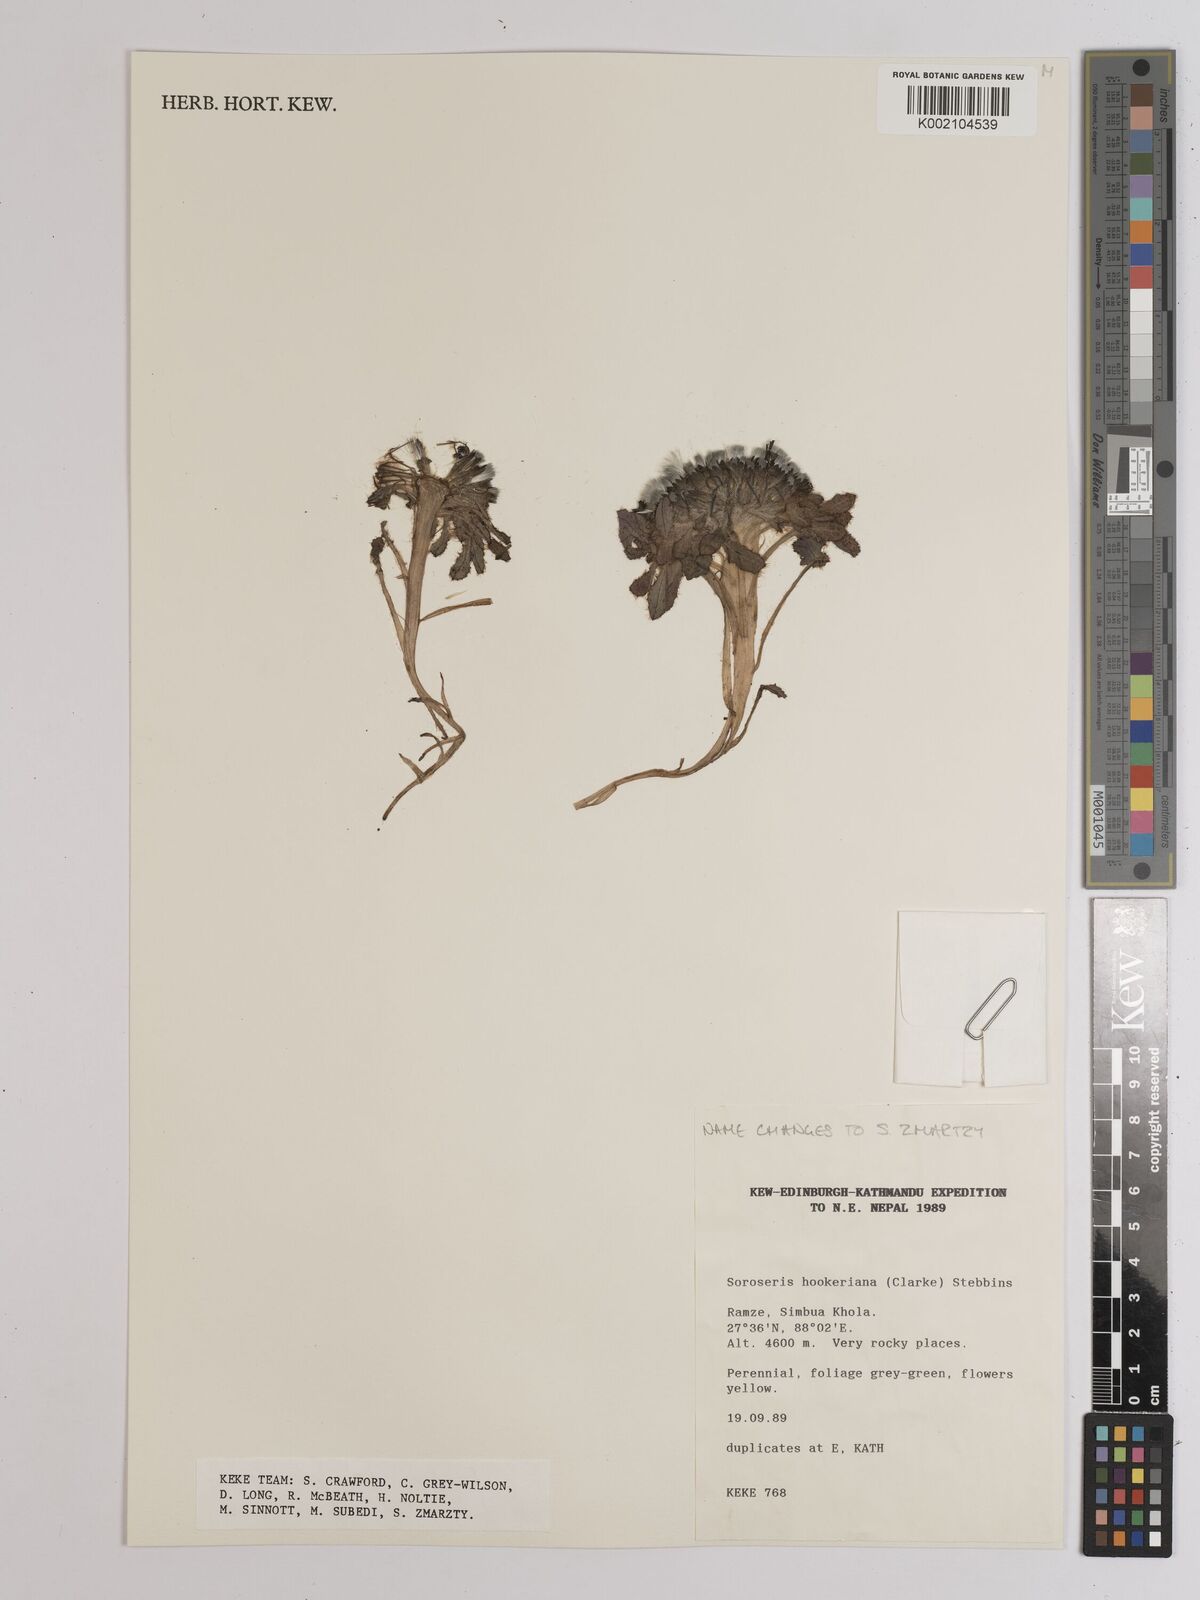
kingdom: Plantae
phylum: Tracheophyta
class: Magnoliopsida
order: Asterales
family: Asteraceae
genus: Soroseris
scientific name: Soroseris hookeriana
